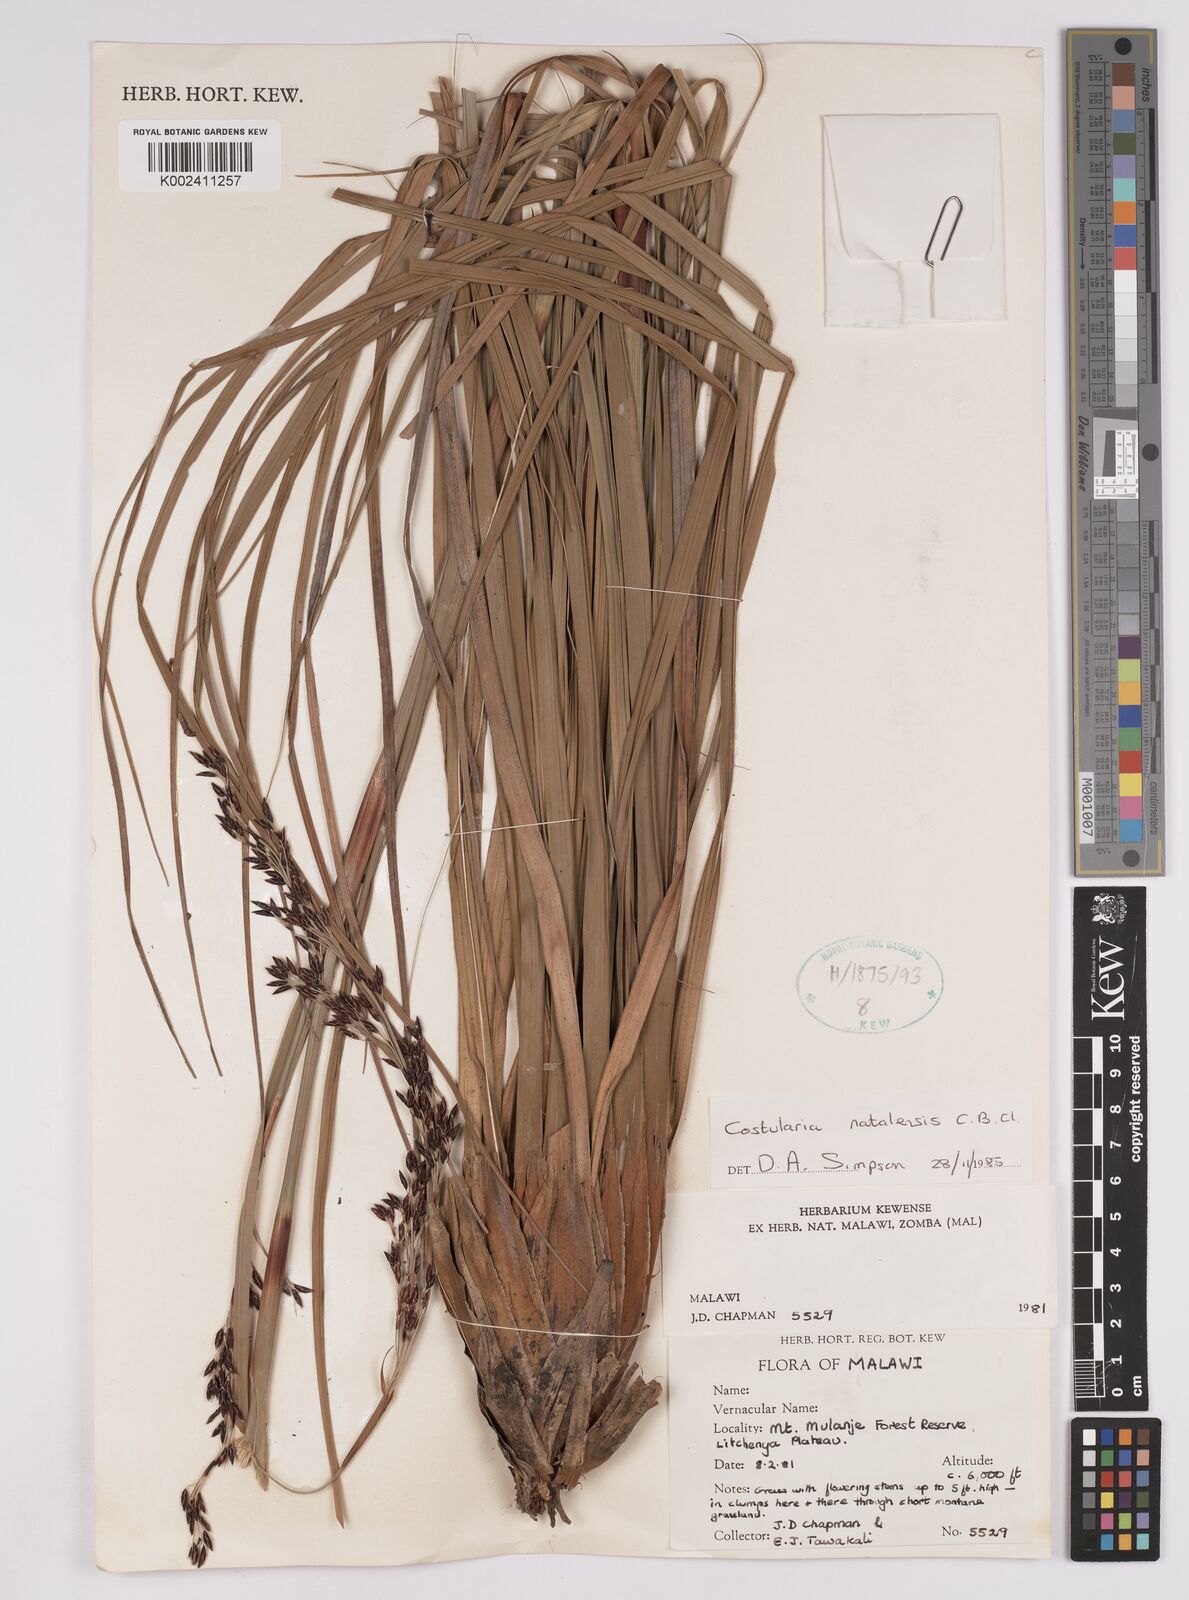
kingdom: Plantae
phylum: Tracheophyta
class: Liliopsida
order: Poales
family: Cyperaceae
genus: Costularia
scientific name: Costularia natalensis
